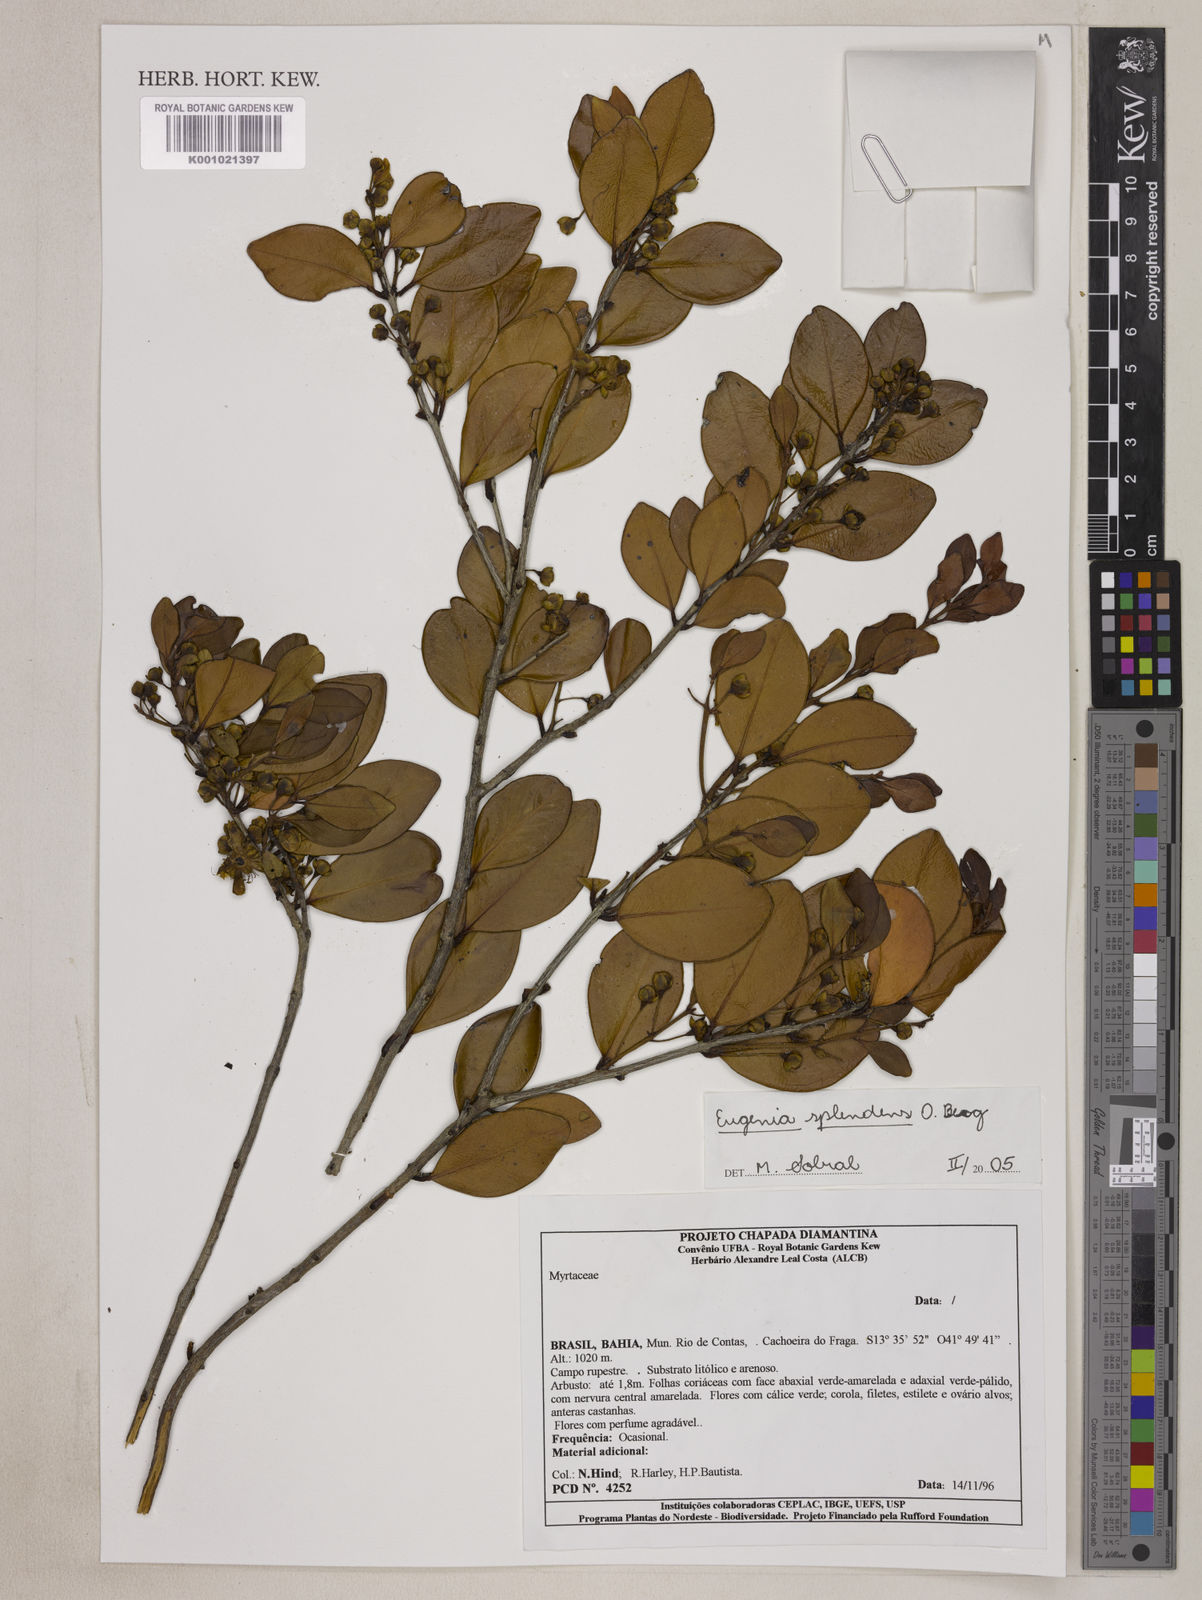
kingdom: Plantae
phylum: Tracheophyta
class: Magnoliopsida
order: Myrtales
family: Myrtaceae
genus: Eugenia
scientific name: Eugenia splendens
